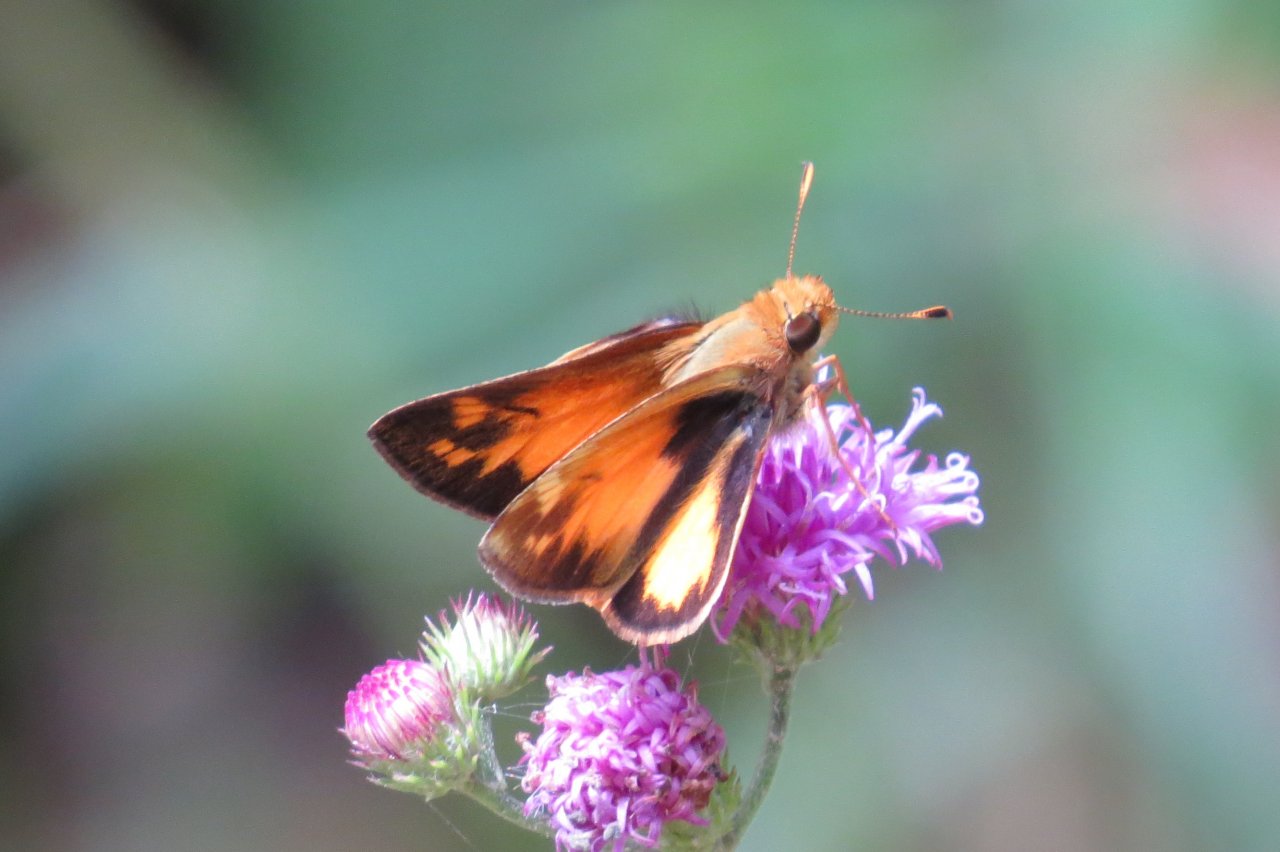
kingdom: Animalia
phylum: Arthropoda
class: Insecta
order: Lepidoptera
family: Hesperiidae
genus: Lon
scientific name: Lon zabulon
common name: Zabulon Skipper
